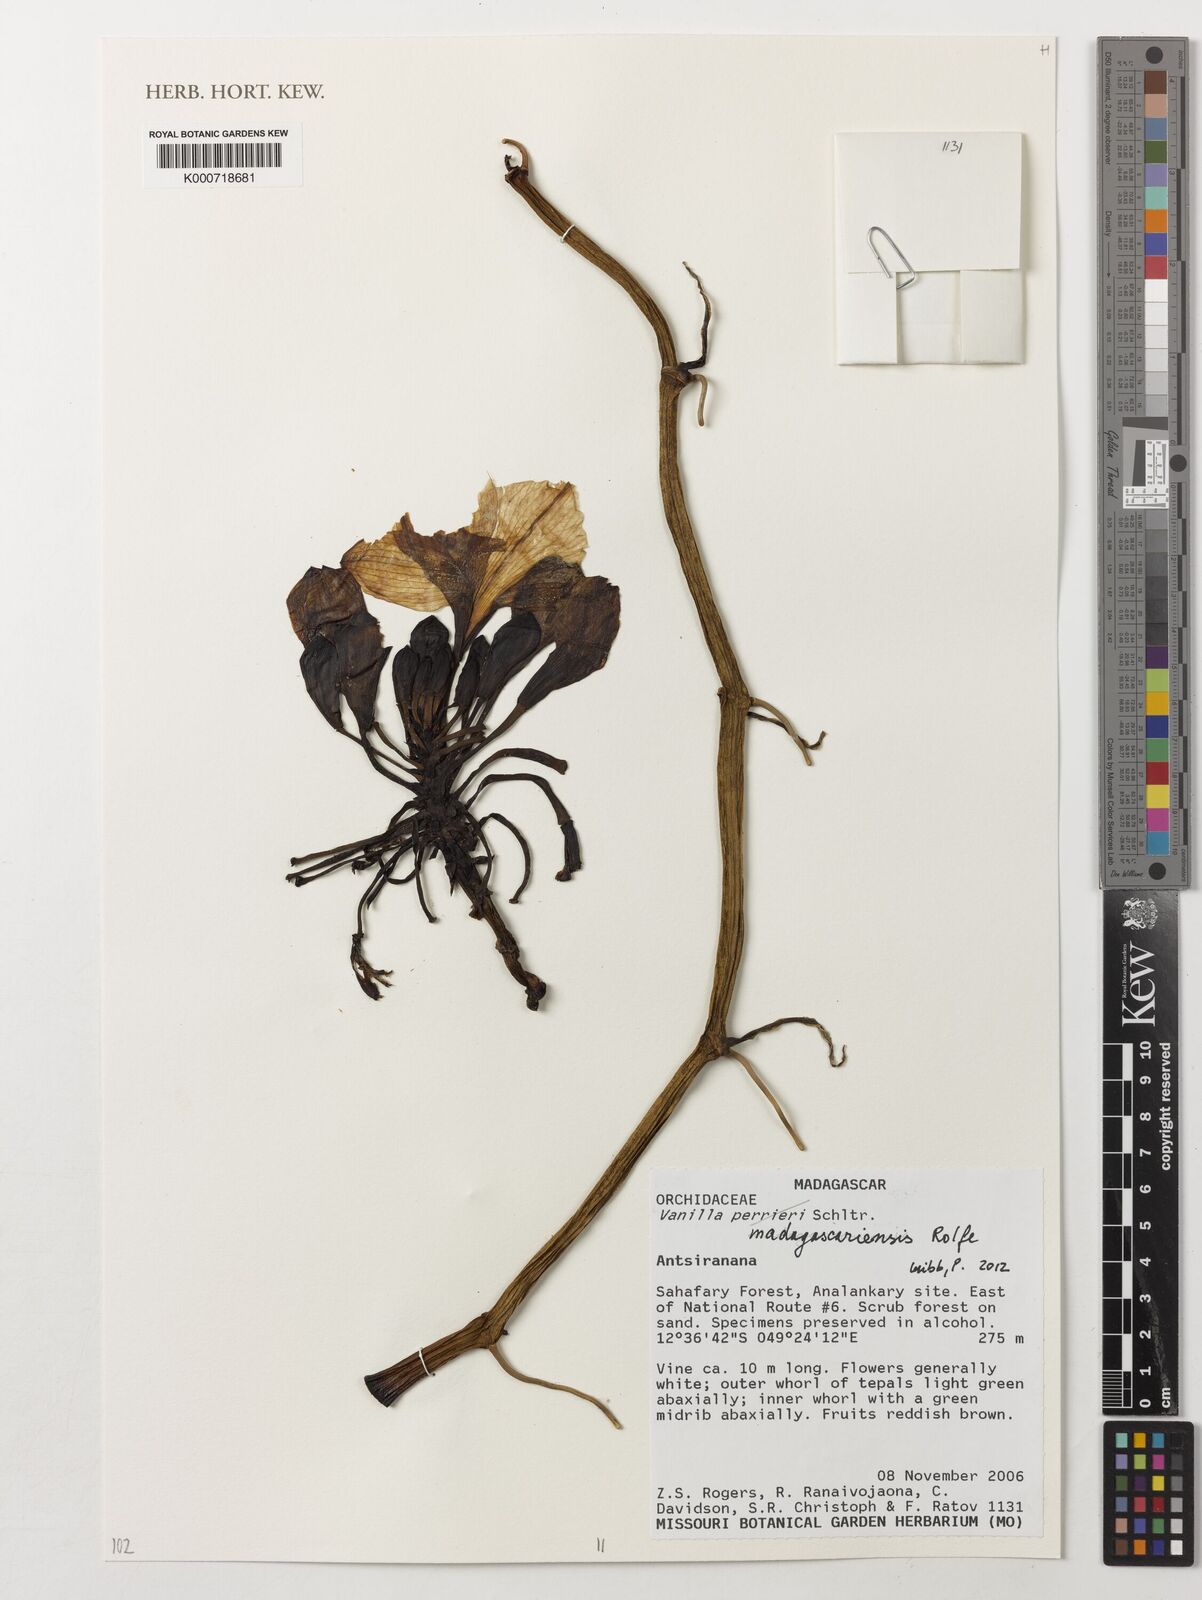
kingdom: Plantae
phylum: Tracheophyta
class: Liliopsida
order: Asparagales
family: Orchidaceae
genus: Vanilla
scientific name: Vanilla madagascariensis
